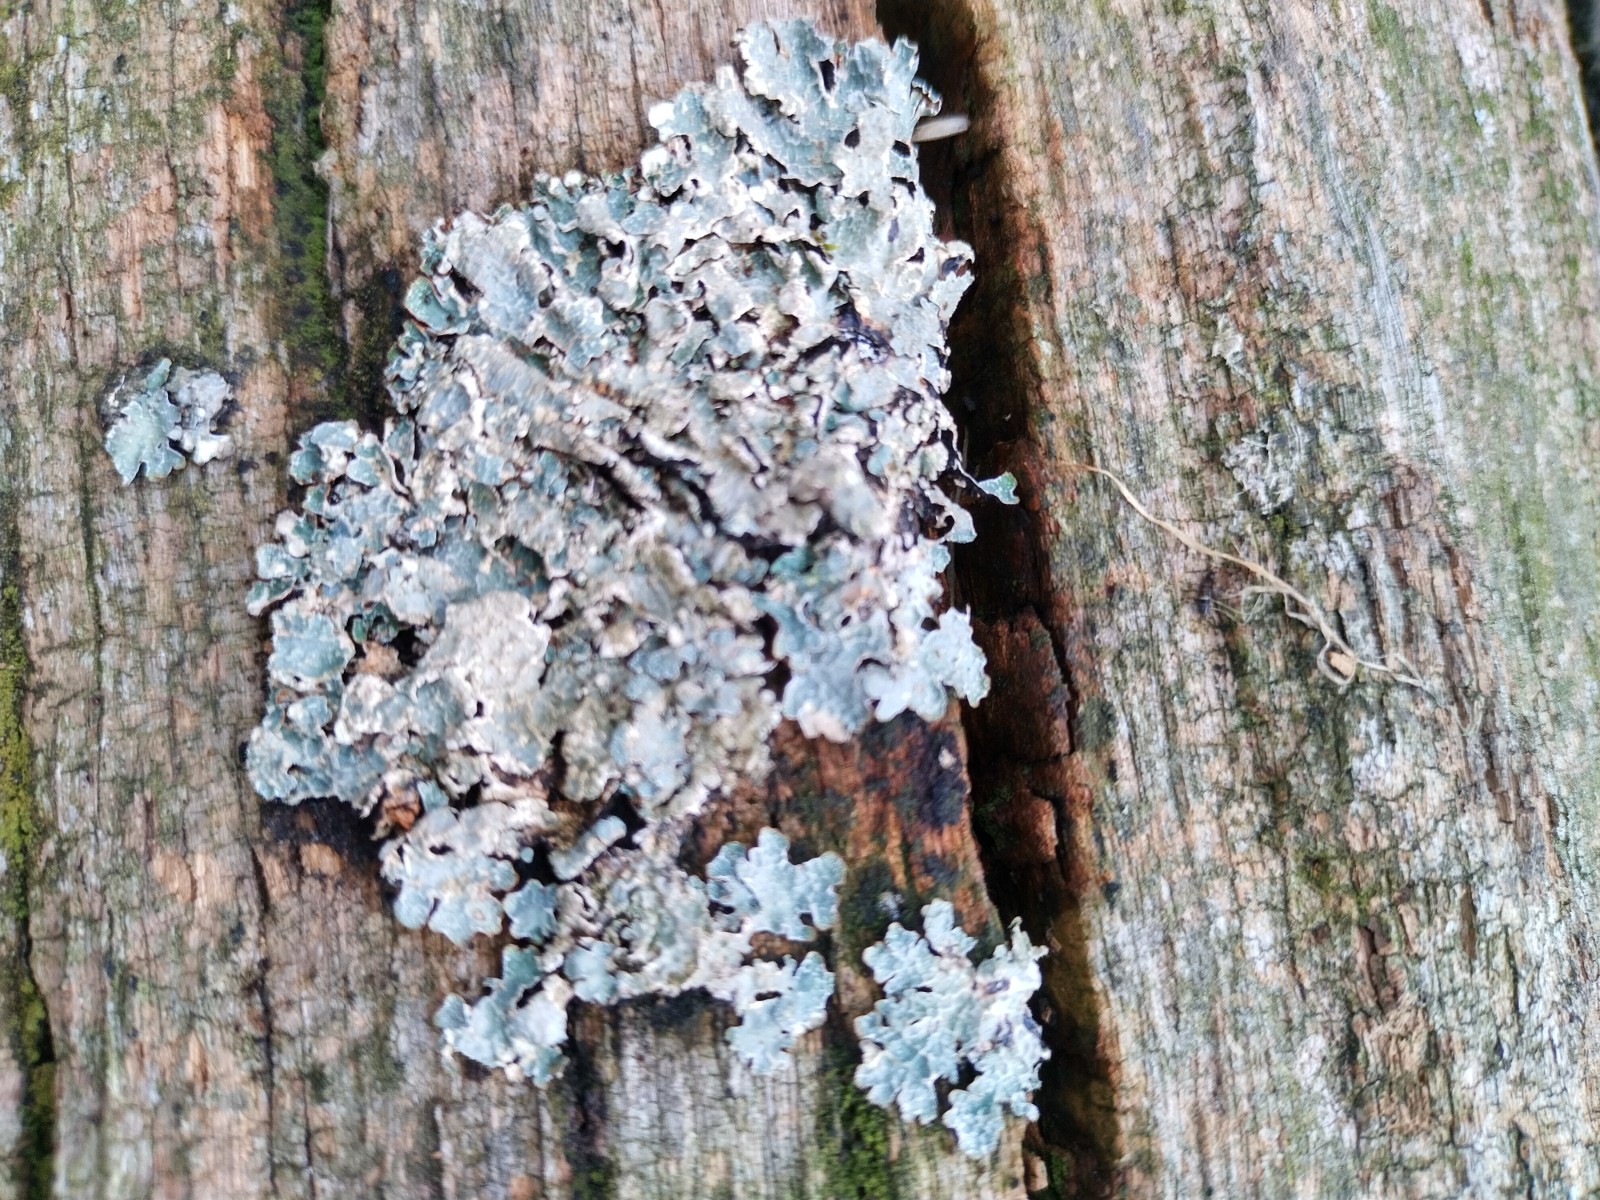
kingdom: Fungi
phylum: Ascomycota
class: Lecanoromycetes
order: Lecanorales
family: Parmeliaceae
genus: Parmelia
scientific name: Parmelia sulcata
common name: rynket skållav
